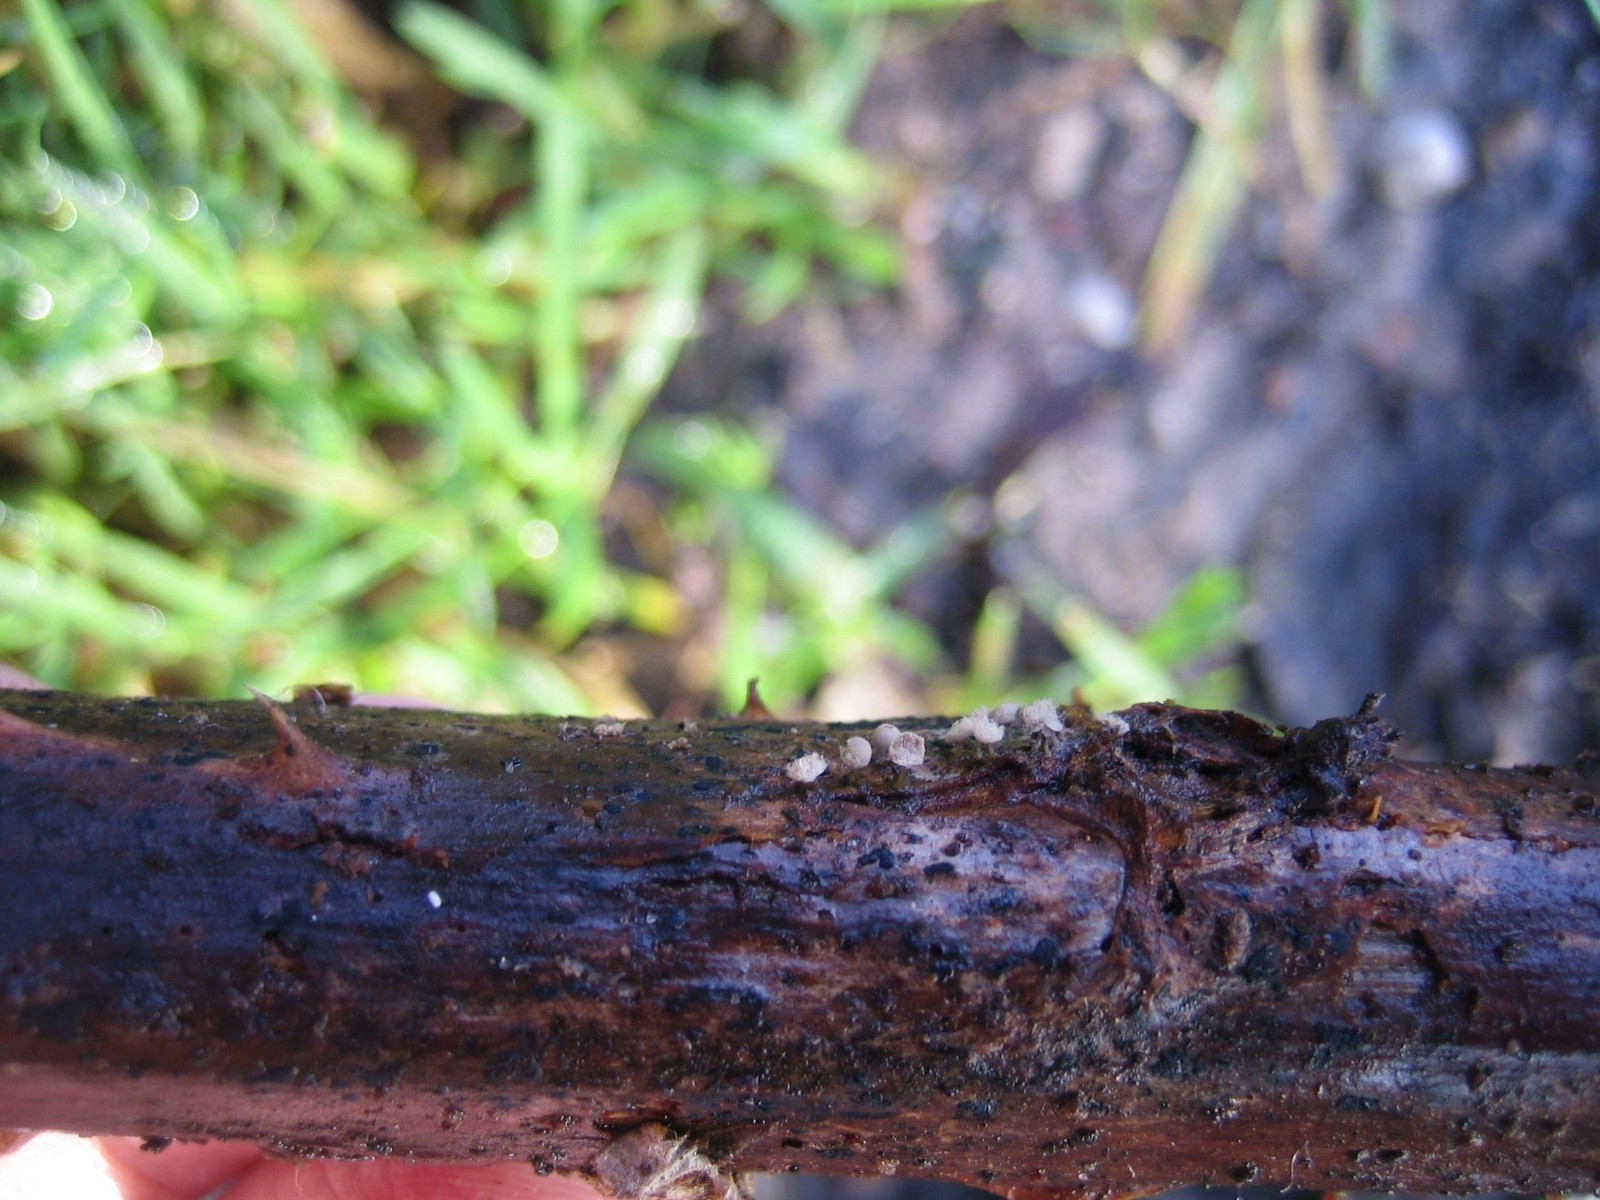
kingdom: Protozoa
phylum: Mycetozoa
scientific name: Mycetozoa
